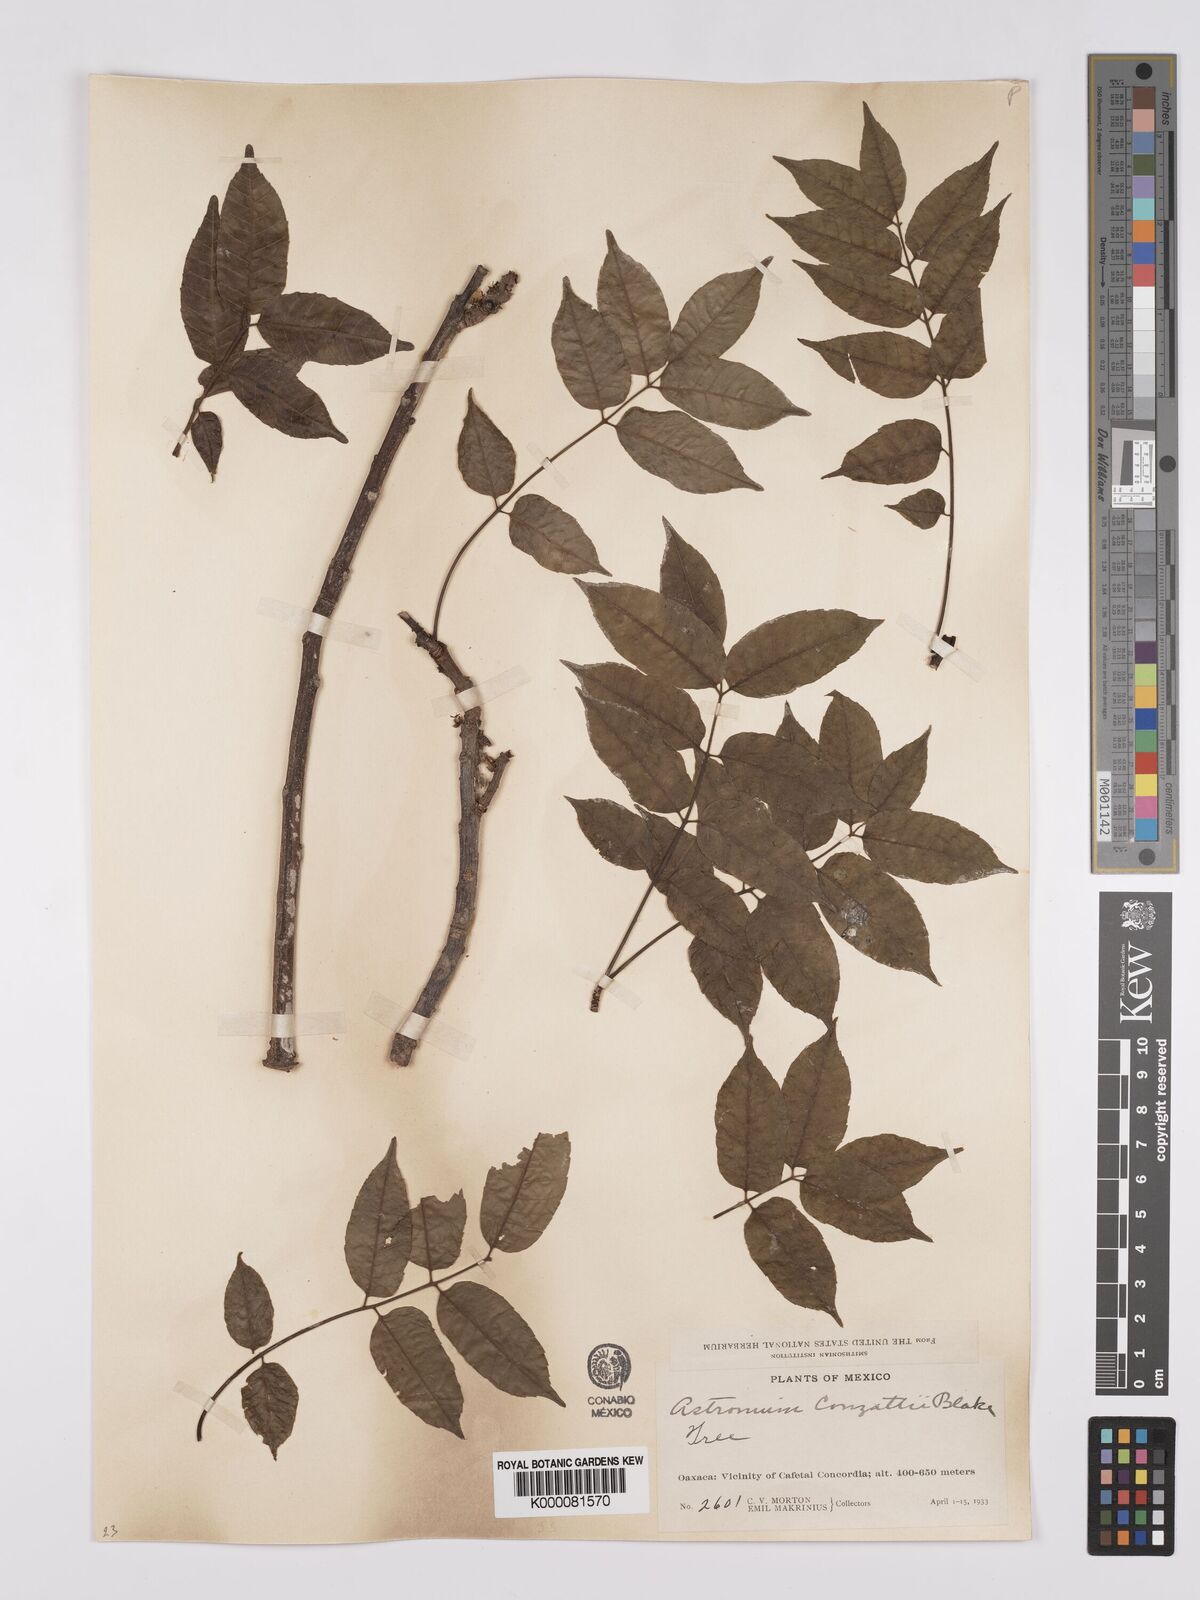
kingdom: Plantae
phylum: Tracheophyta
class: Magnoliopsida
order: Sapindales
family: Anacardiaceae
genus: Astronium
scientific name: Astronium graveolens
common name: Glassywood
